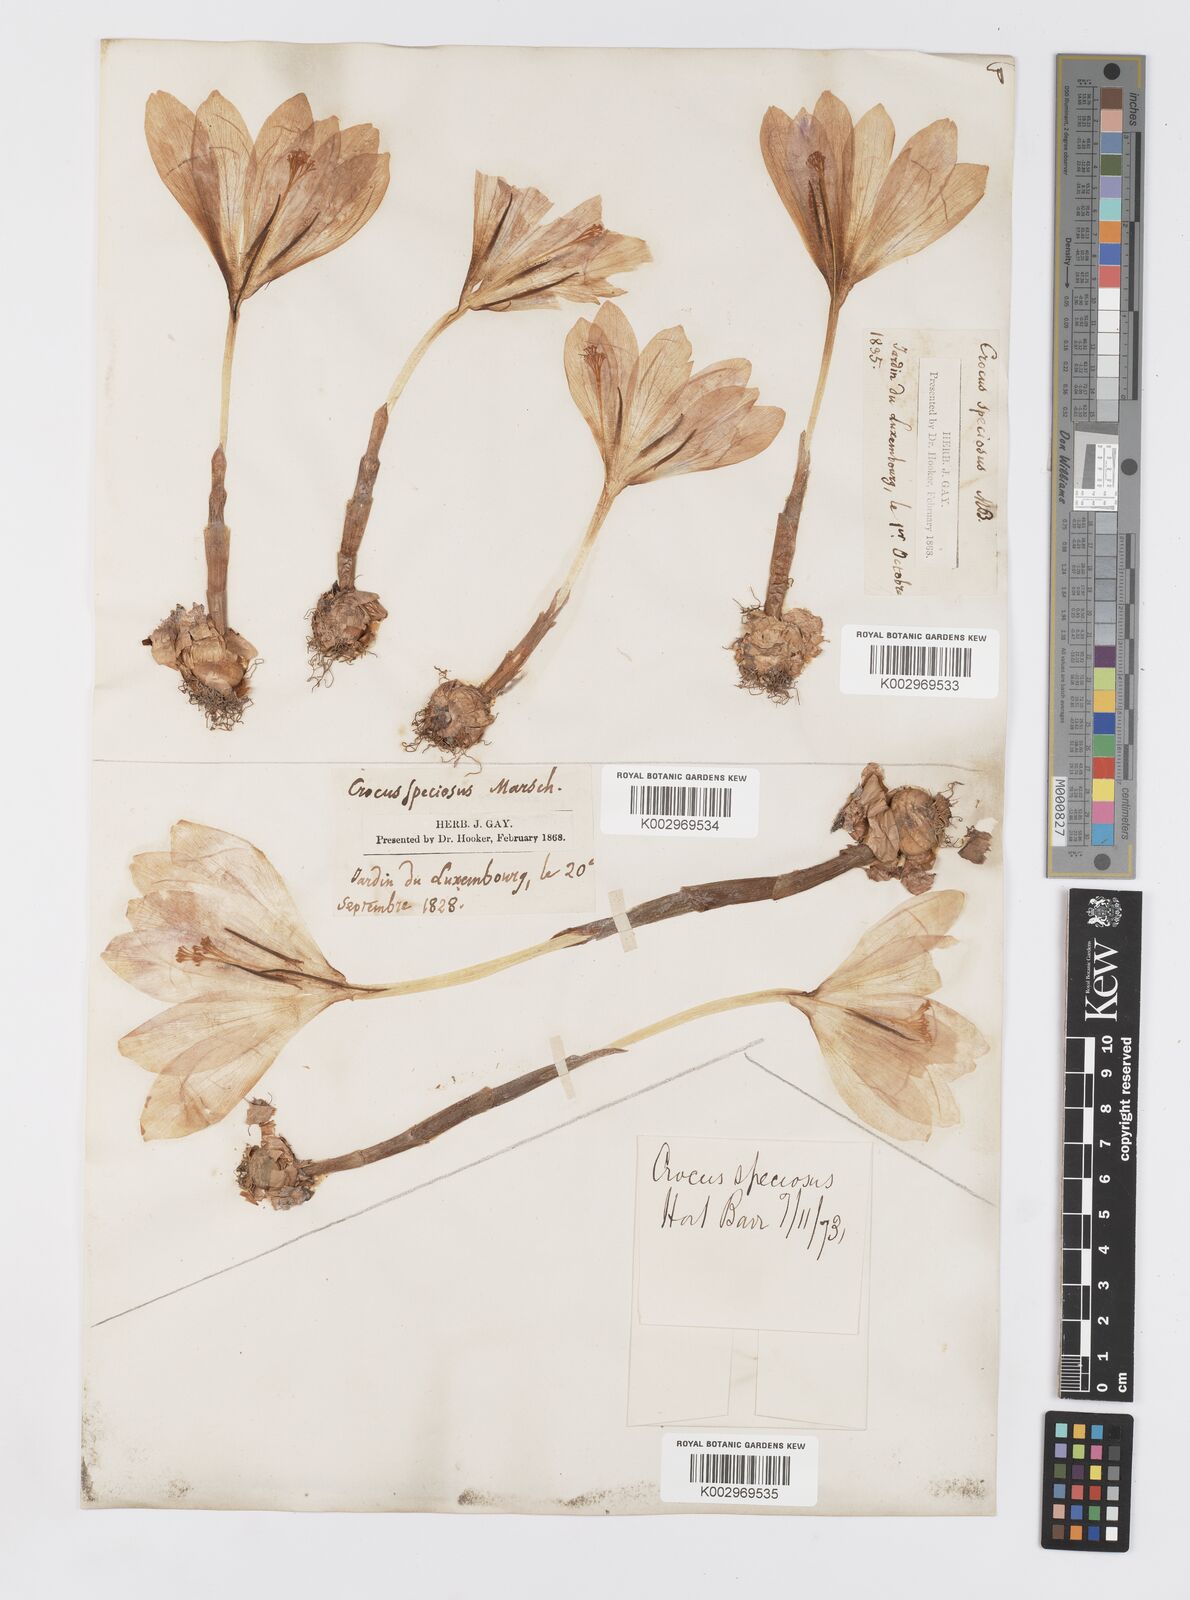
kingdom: Plantae
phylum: Tracheophyta
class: Liliopsida
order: Asparagales
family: Iridaceae
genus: Crocus
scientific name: Crocus speciosus
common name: Bieberstein's crocus
